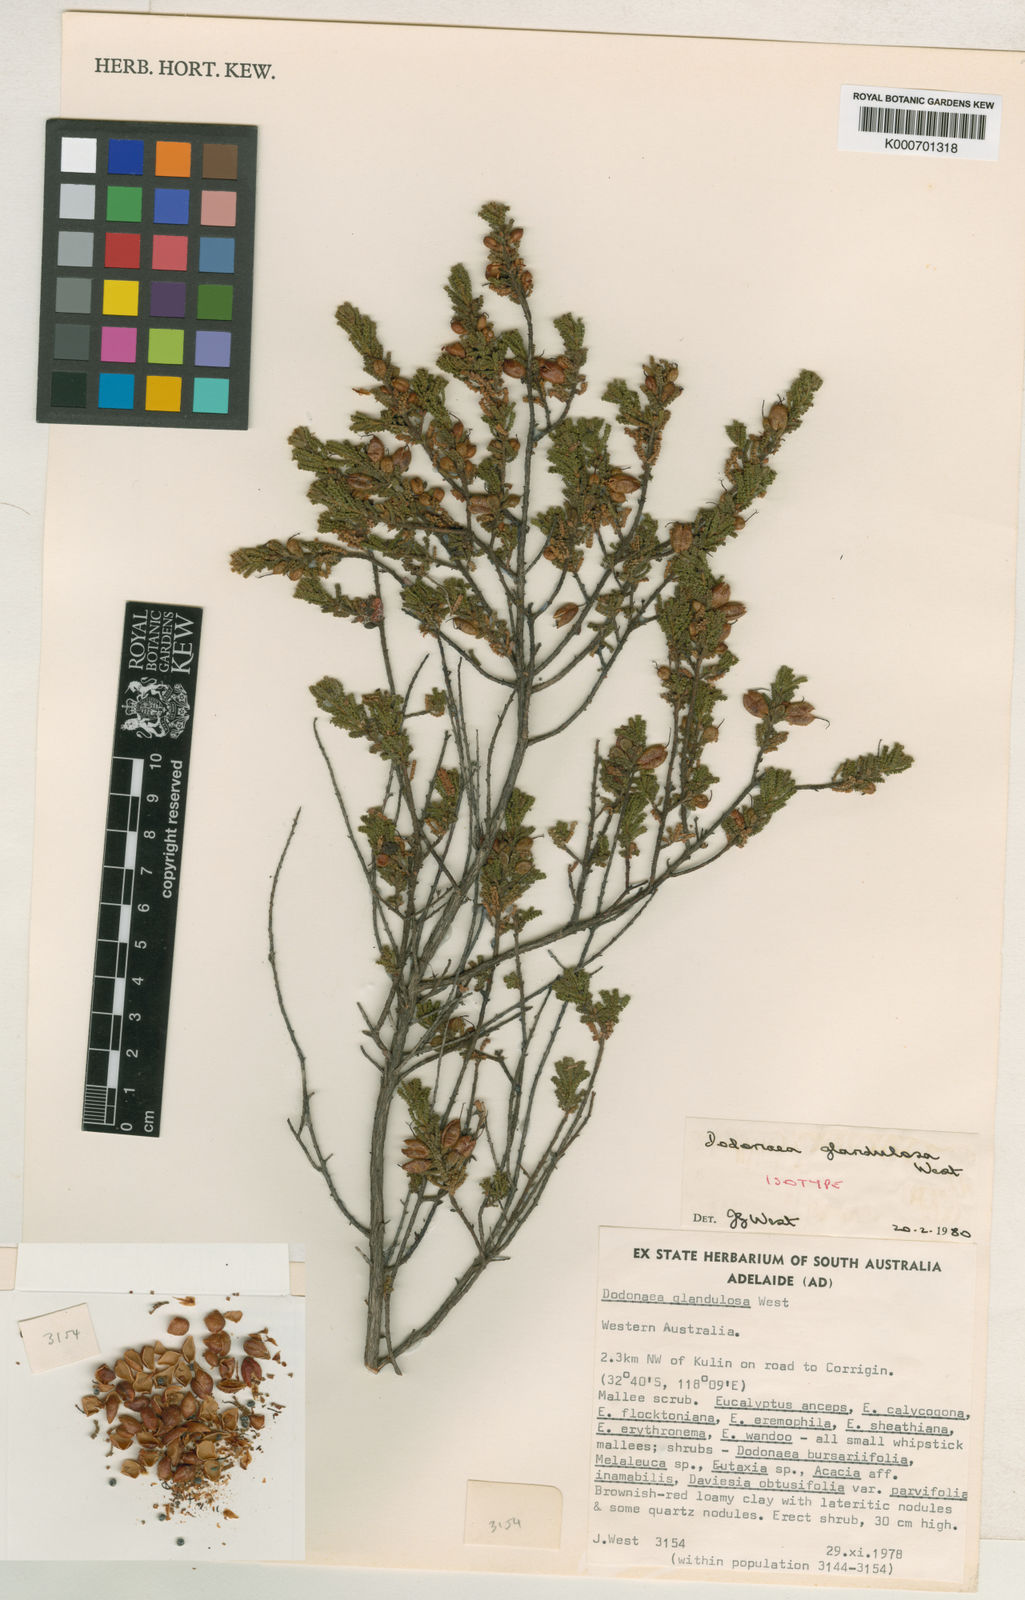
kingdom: Plantae
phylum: Tracheophyta
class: Magnoliopsida
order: Sapindales
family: Sapindaceae
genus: Dodonaea
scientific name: Dodonaea glandulosa
